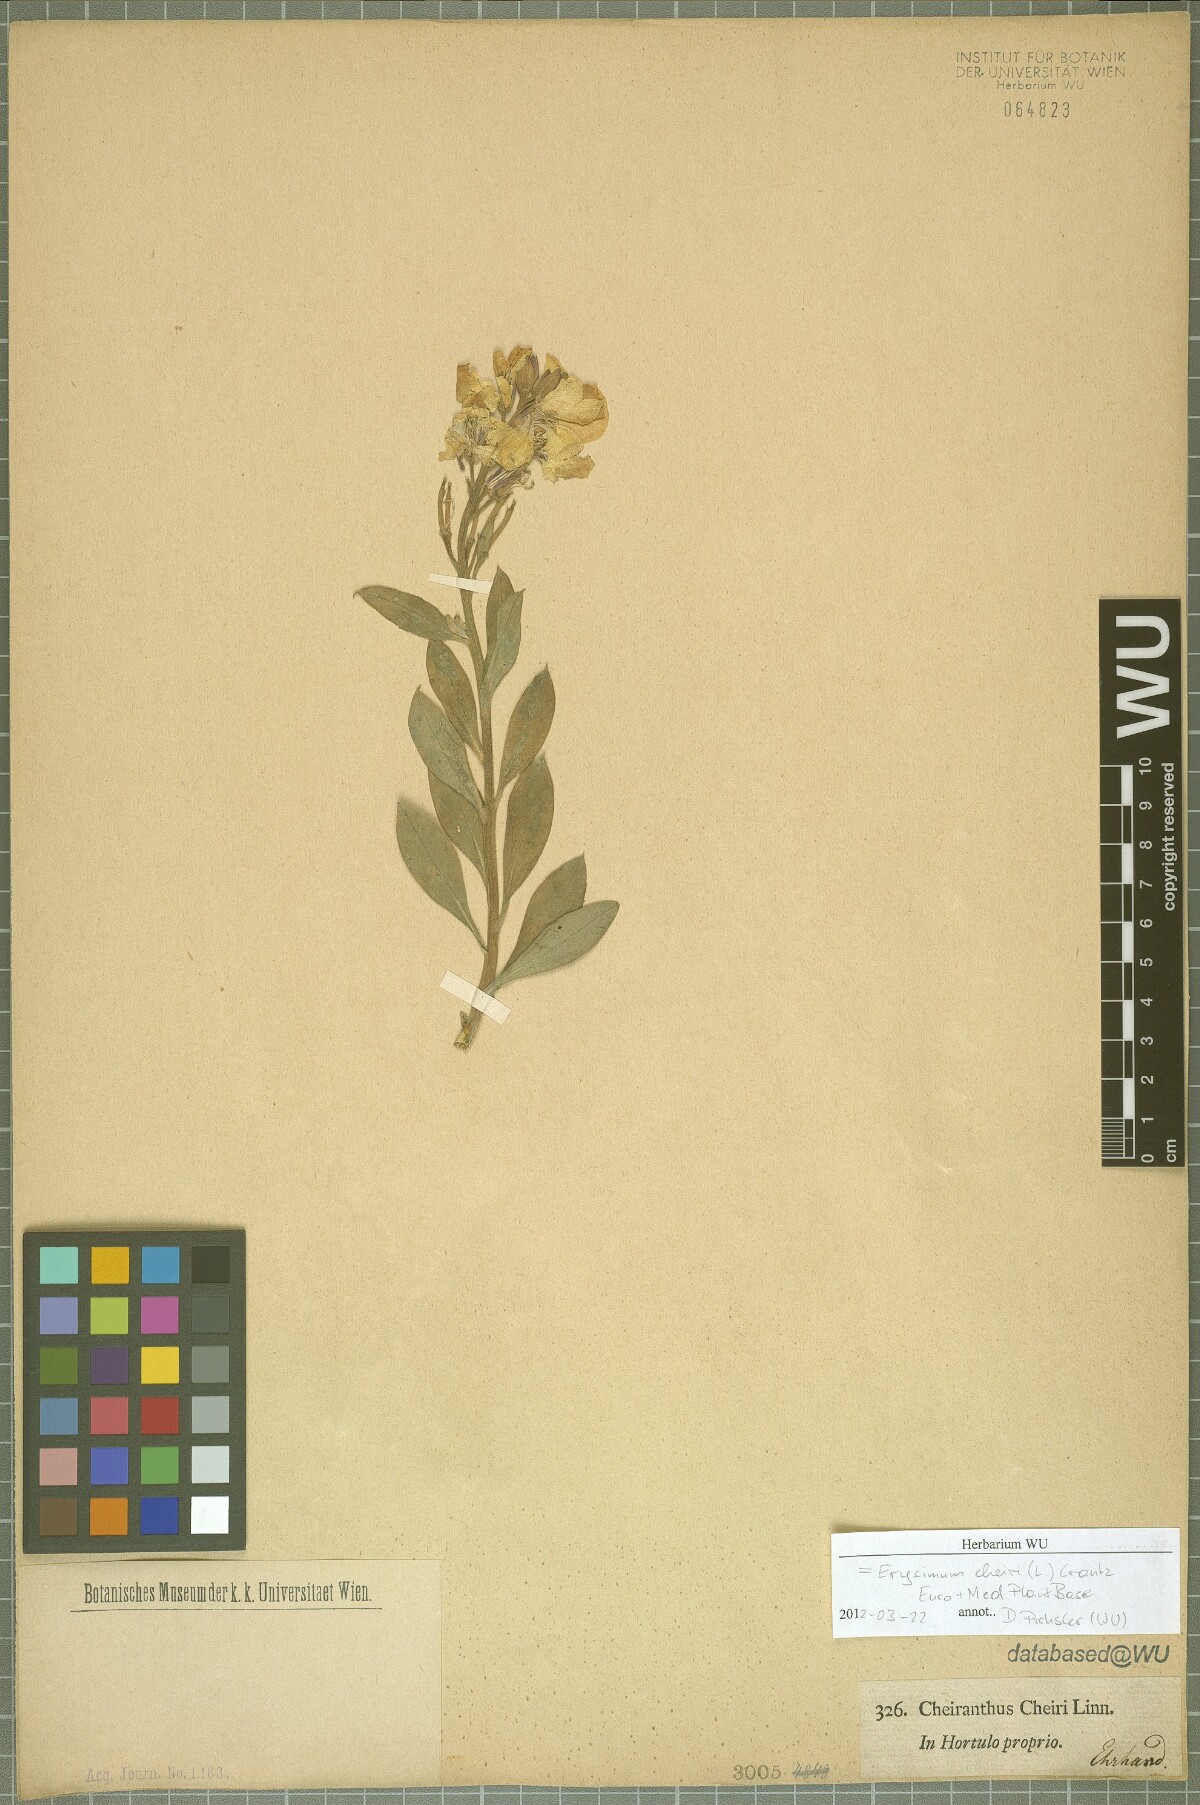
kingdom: Plantae
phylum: Tracheophyta
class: Magnoliopsida
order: Brassicales
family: Brassicaceae
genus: Erysimum
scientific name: Erysimum cheiri
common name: Wallflower
